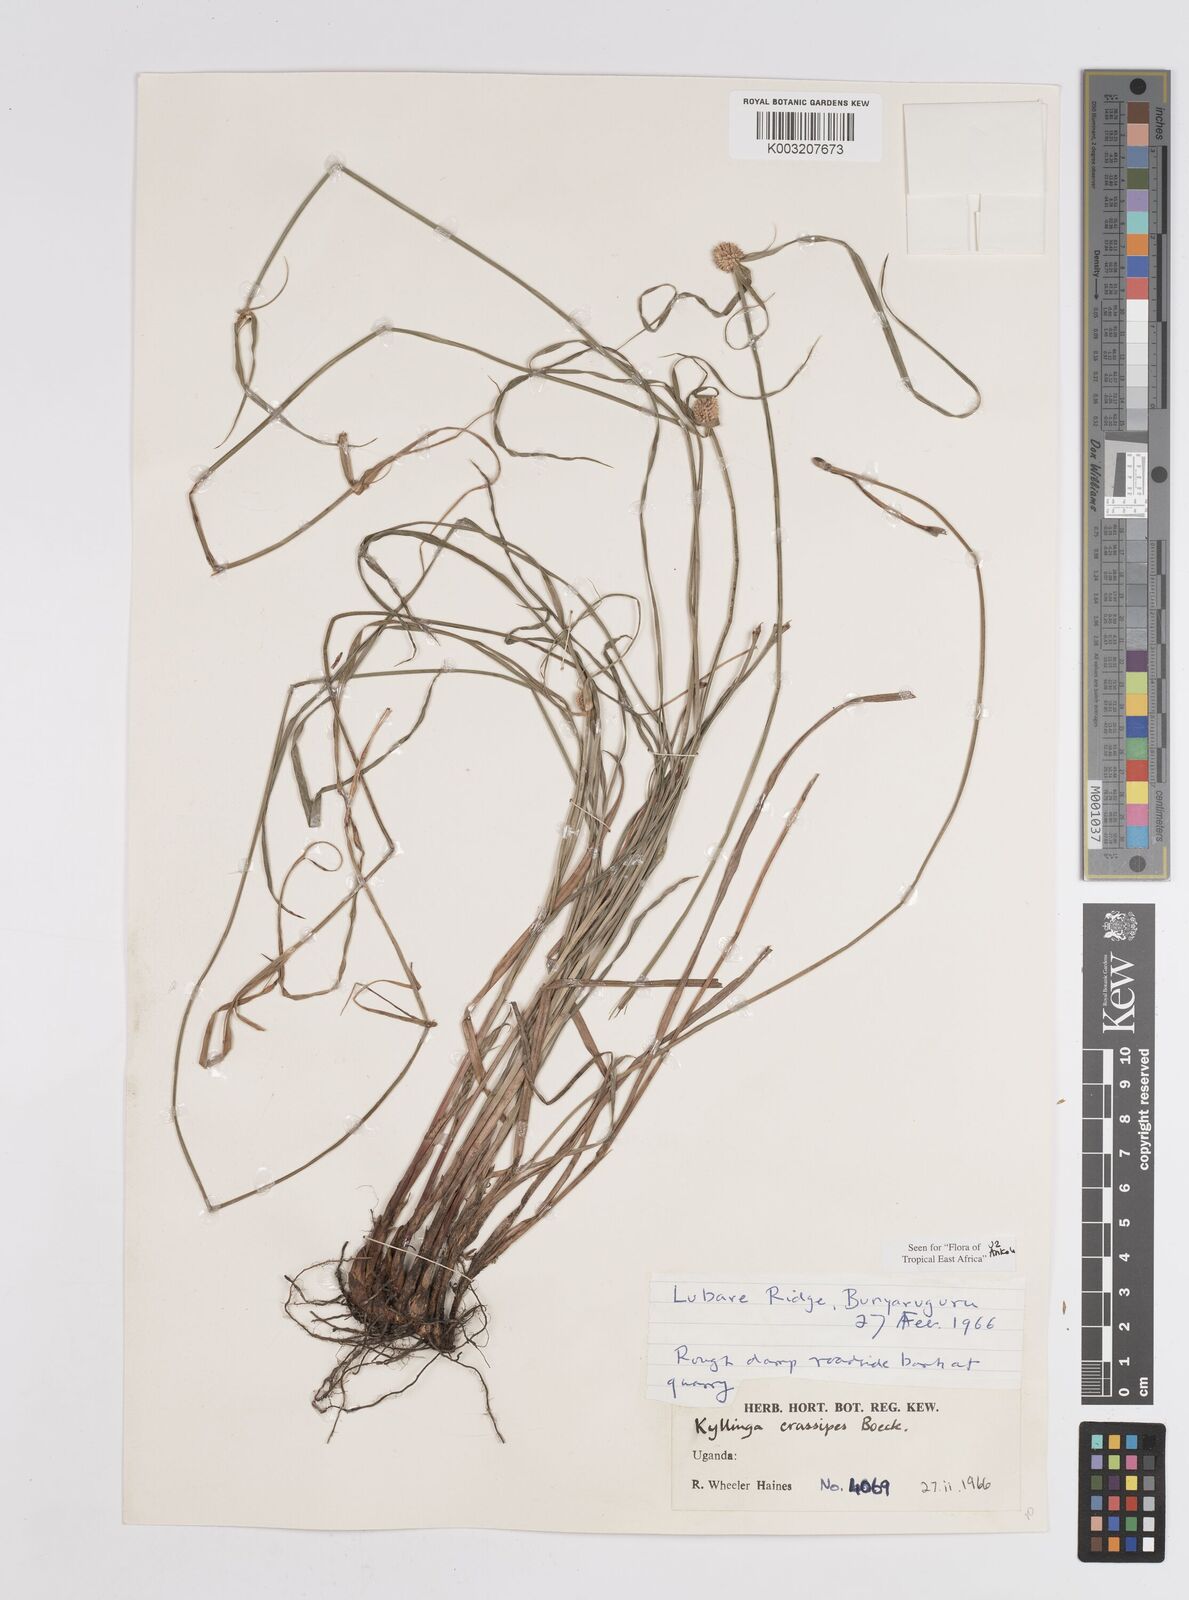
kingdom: Plantae
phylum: Tracheophyta
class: Liliopsida
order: Poales
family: Cyperaceae
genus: Cyperus
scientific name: Cyperus crassipes
